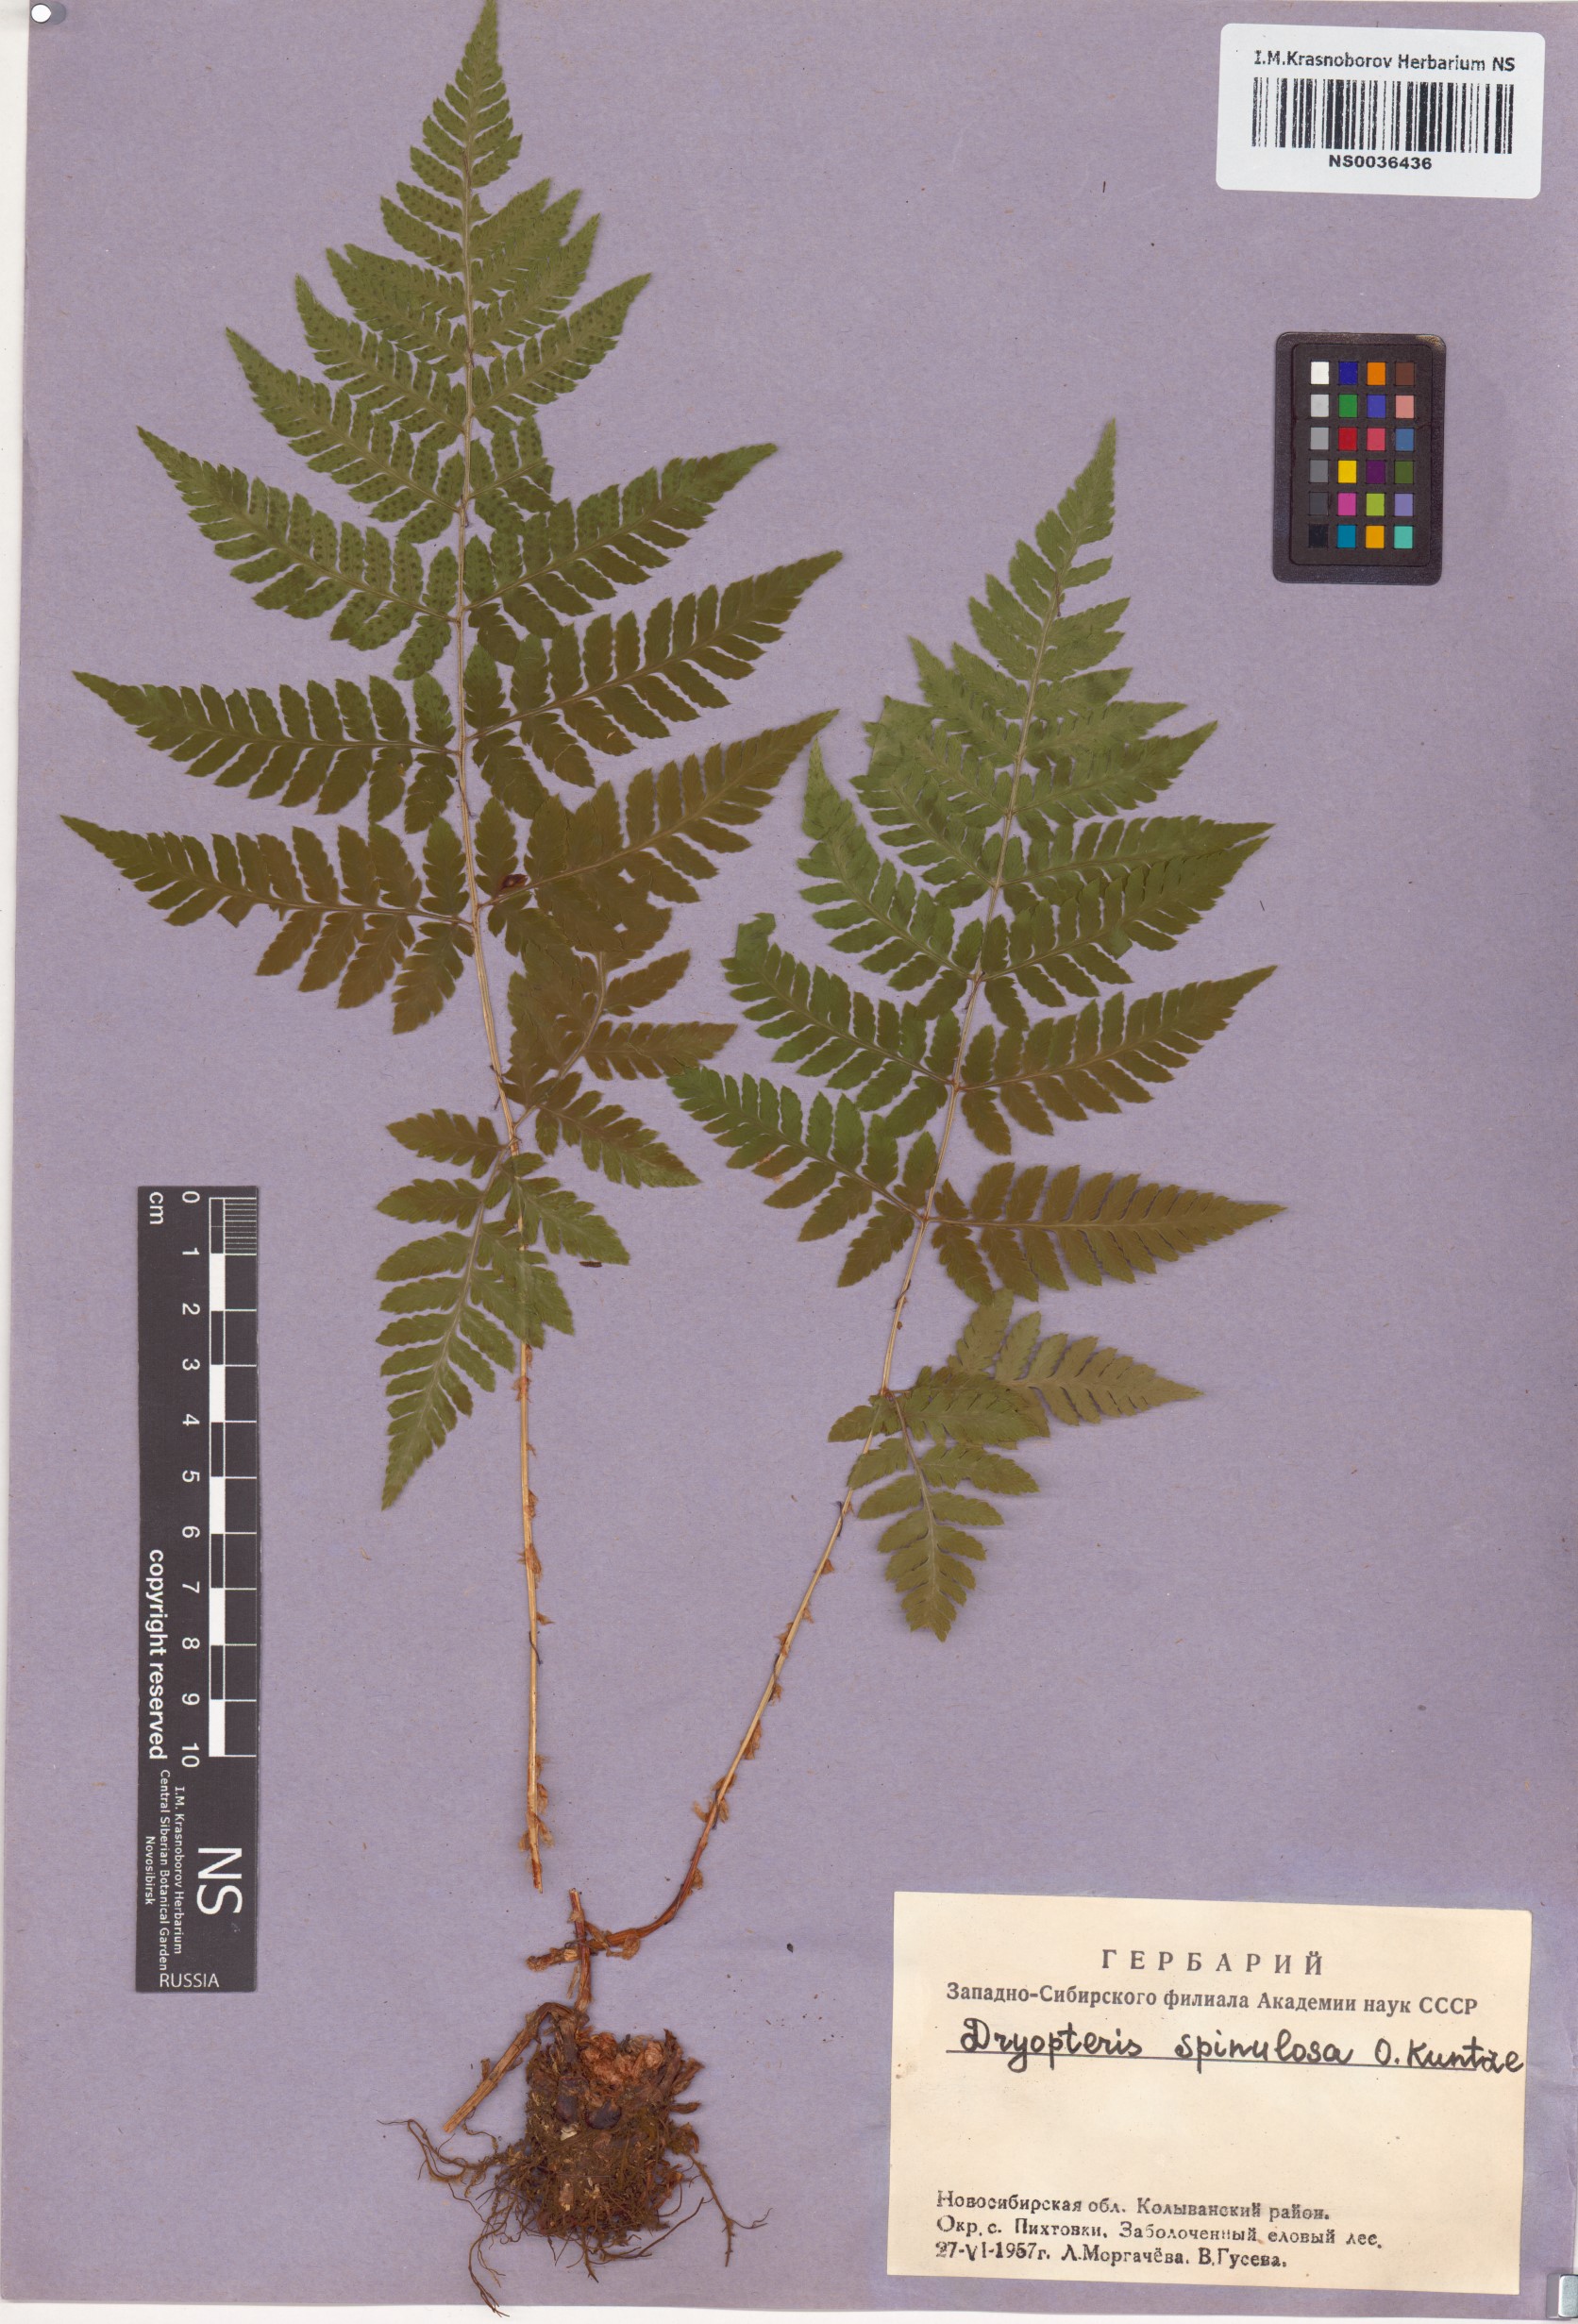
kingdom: Plantae
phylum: Tracheophyta
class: Polypodiopsida
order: Polypodiales
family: Dryopteridaceae
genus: Dryopteris
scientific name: Dryopteris carthusiana
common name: Narrow buckler-fern
